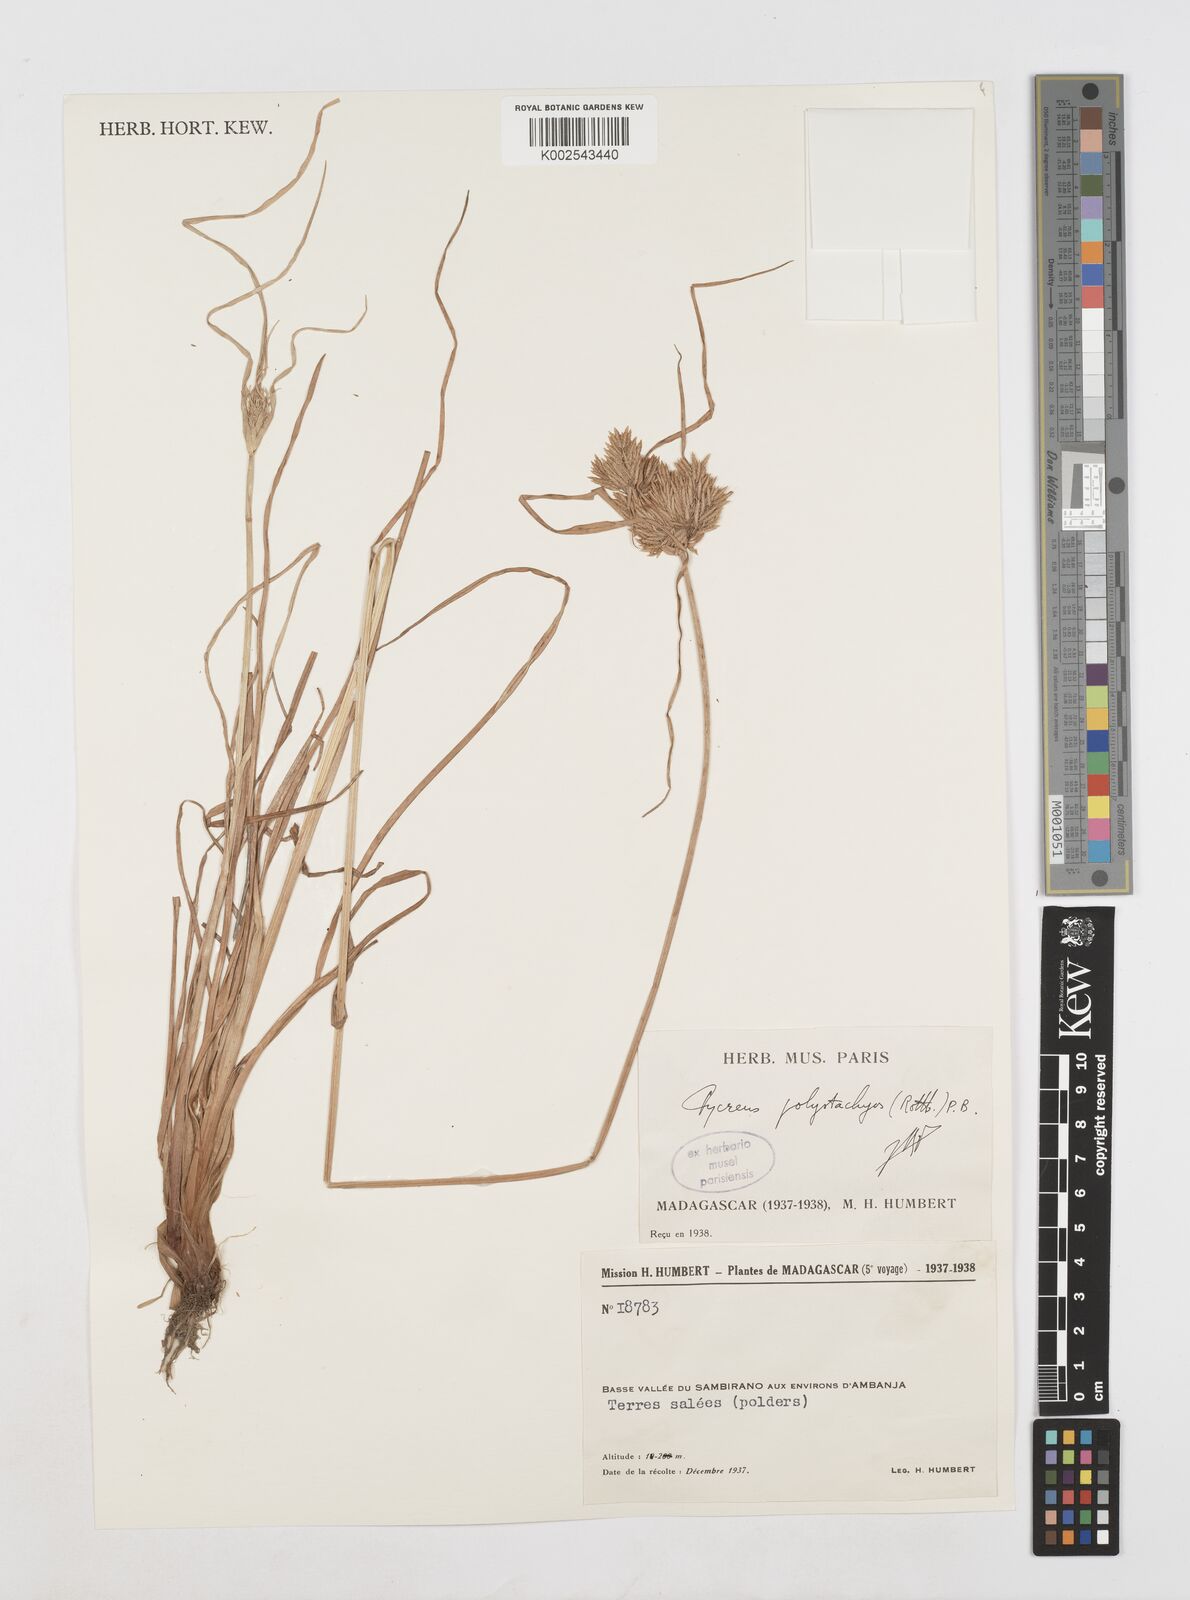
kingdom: Plantae
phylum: Tracheophyta
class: Liliopsida
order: Poales
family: Cyperaceae
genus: Cyperus
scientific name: Cyperus polystachyos
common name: Bunchy flat sedge
